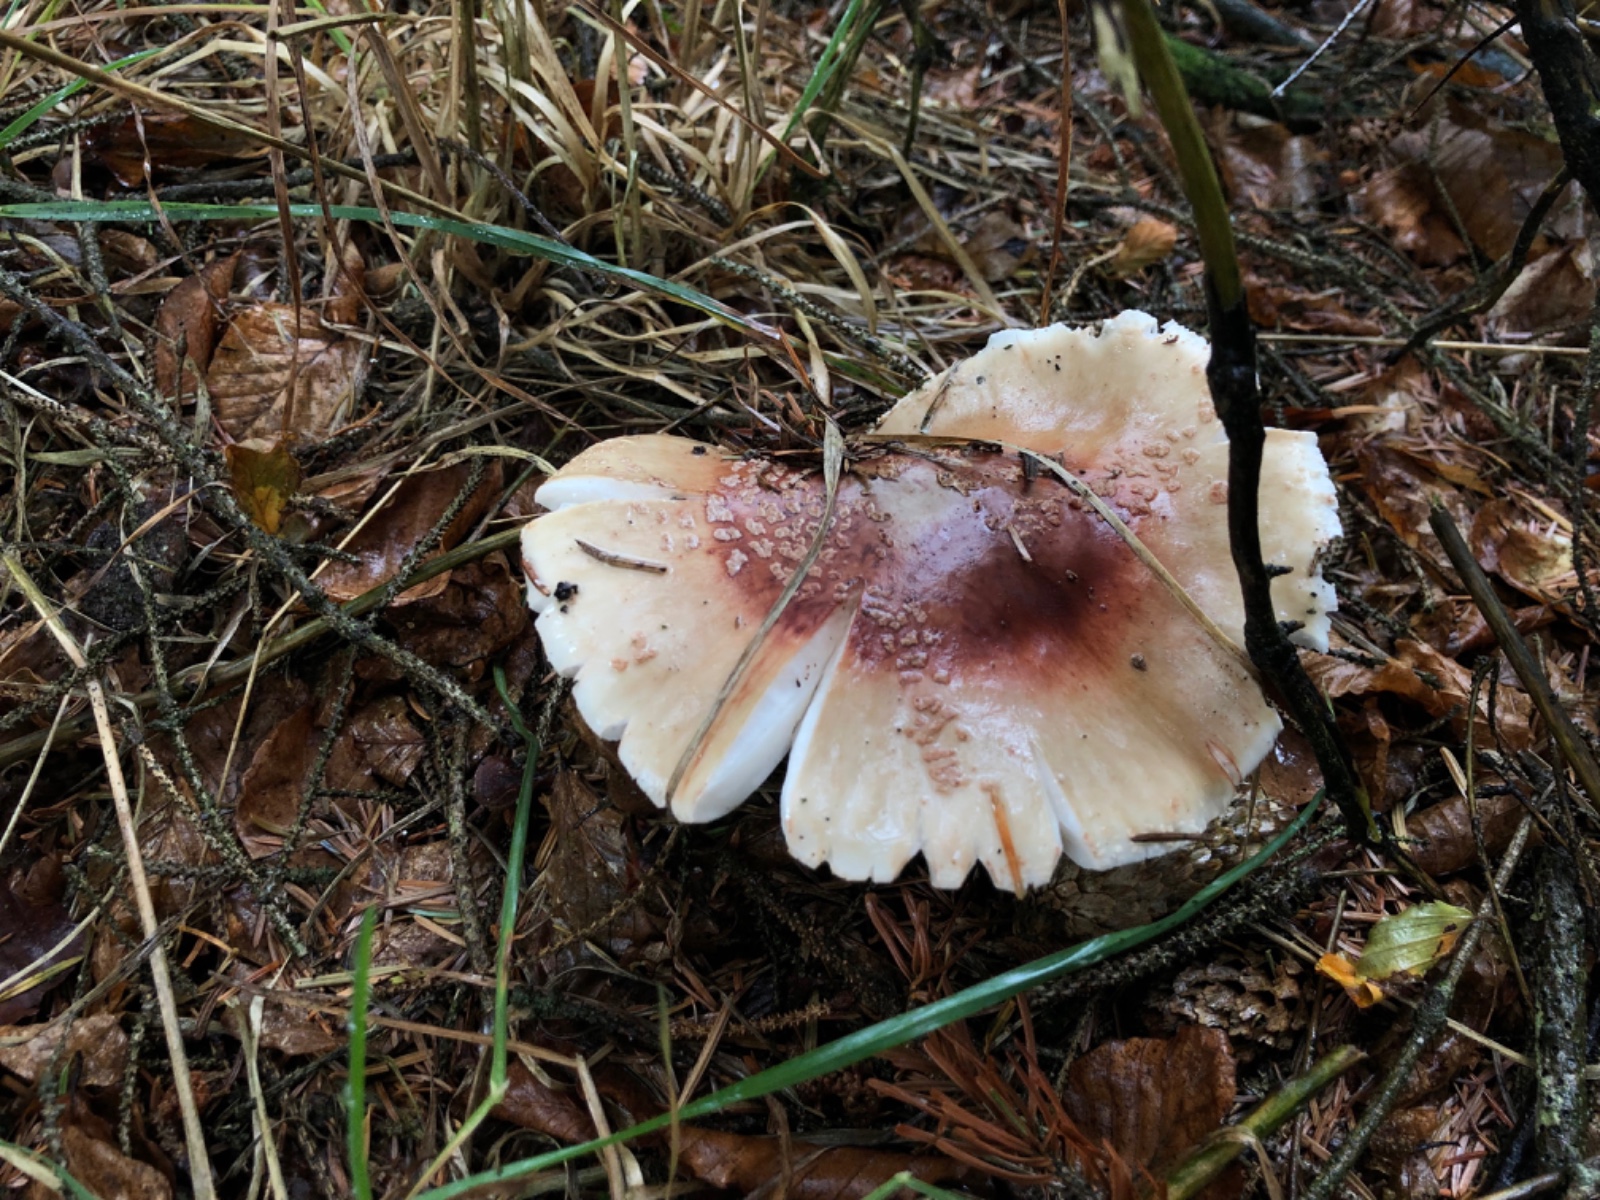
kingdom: Fungi
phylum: Basidiomycota
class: Agaricomycetes
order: Agaricales
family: Amanitaceae
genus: Amanita
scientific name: Amanita rubescens
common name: rødmende fluesvamp
